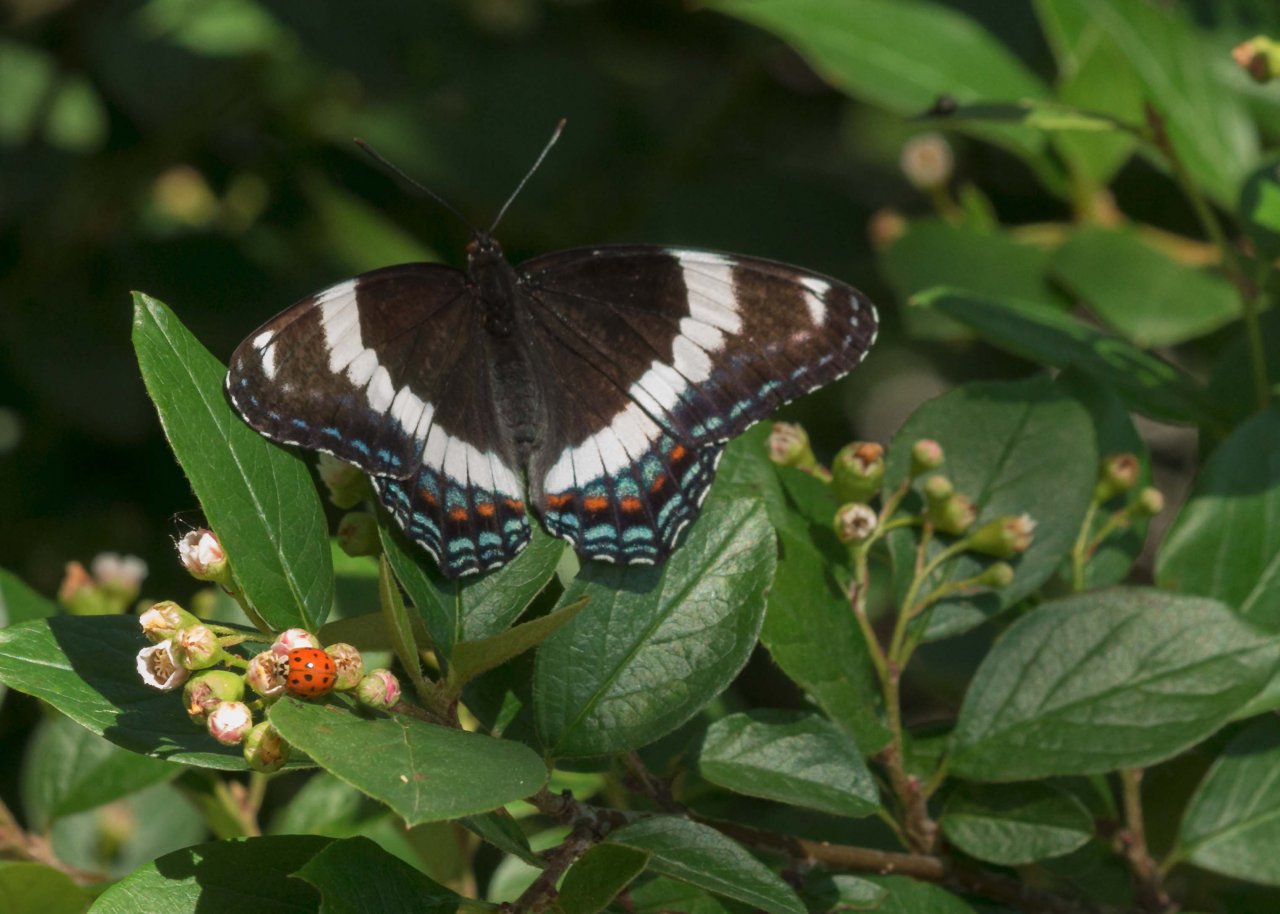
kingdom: Animalia
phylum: Arthropoda
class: Insecta
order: Lepidoptera
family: Nymphalidae
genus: Limenitis
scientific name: Limenitis arthemis
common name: Red-spotted Admiral
